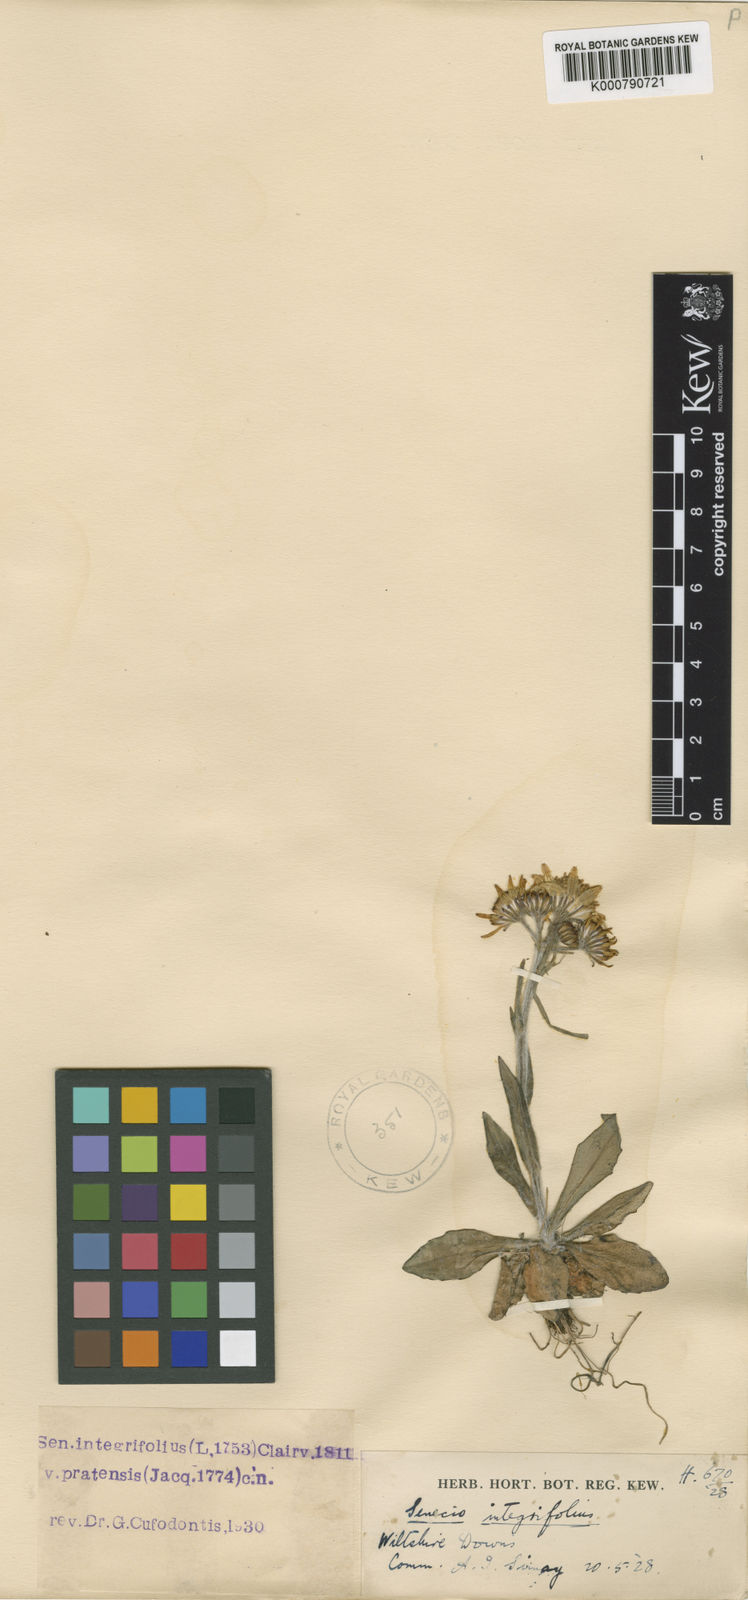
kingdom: Plantae
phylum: Tracheophyta
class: Magnoliopsida
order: Asterales
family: Asteraceae
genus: Tephroseris
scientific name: Tephroseris integrifolia
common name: Field fleawort
